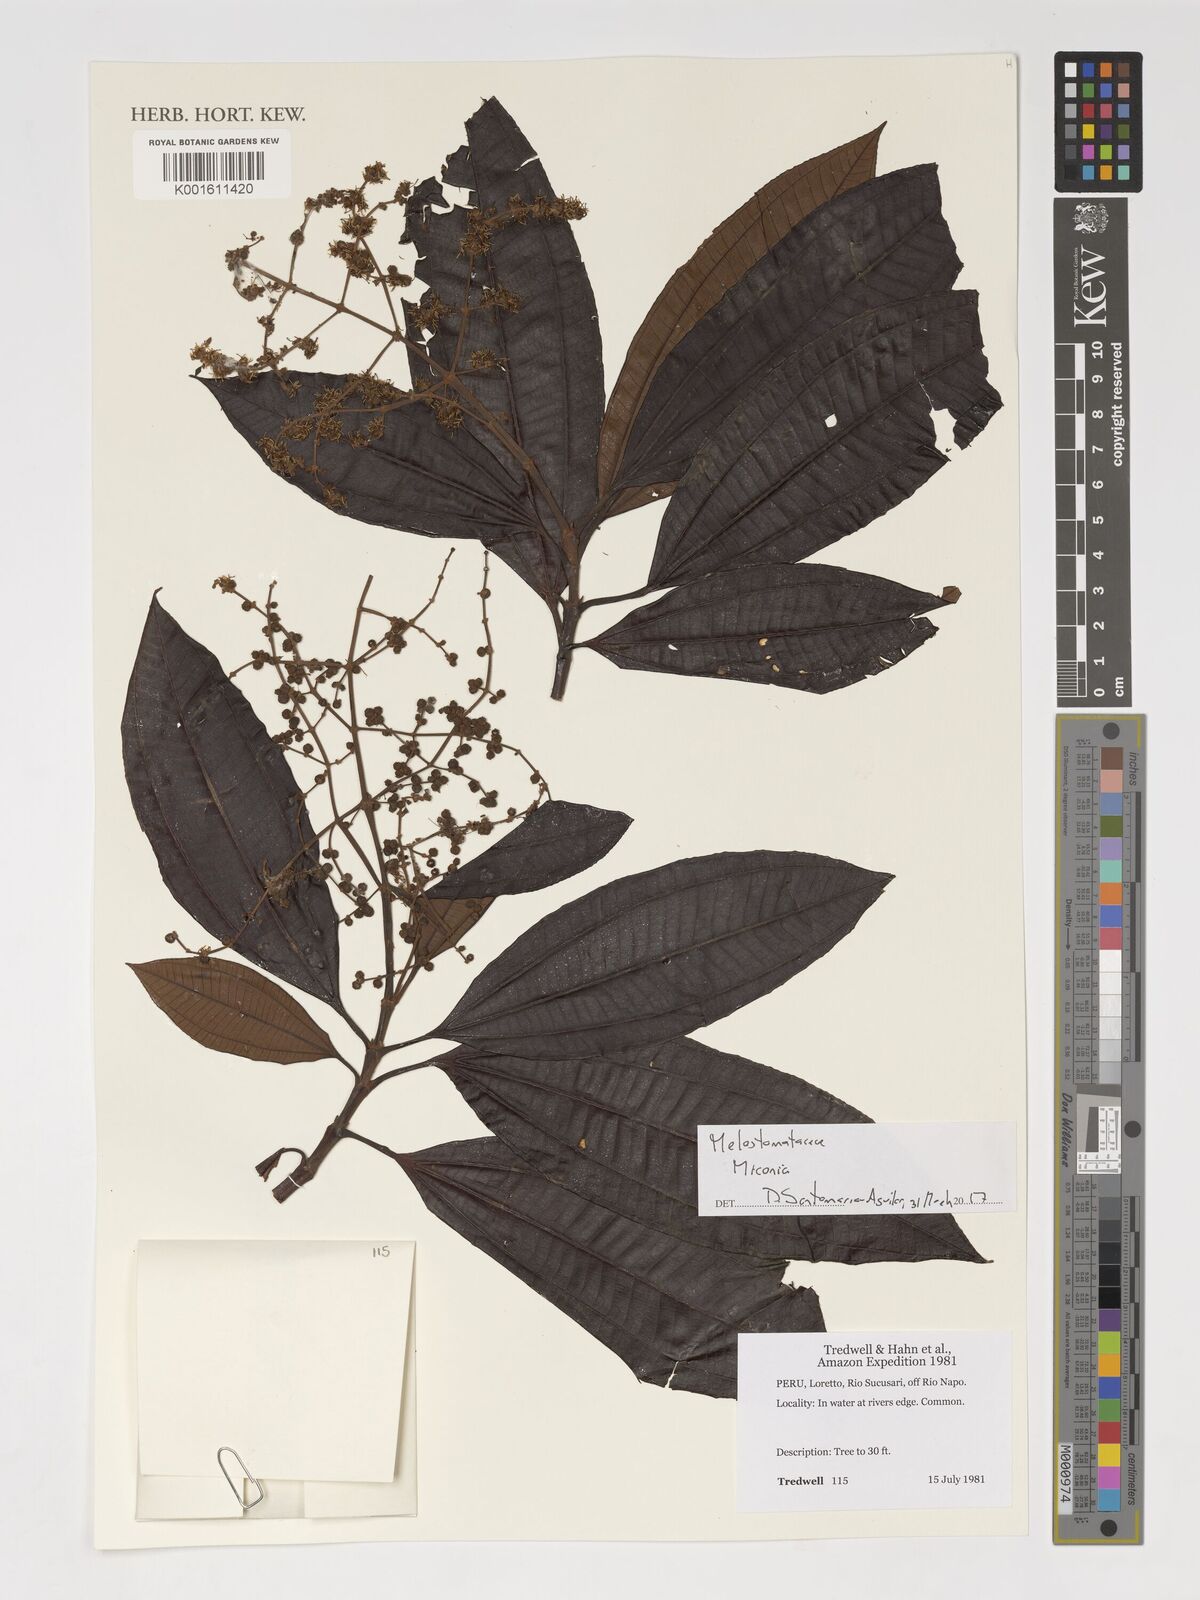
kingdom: Plantae
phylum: Tracheophyta
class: Magnoliopsida
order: Myrtales
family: Melastomataceae
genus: Miconia
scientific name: Miconia
